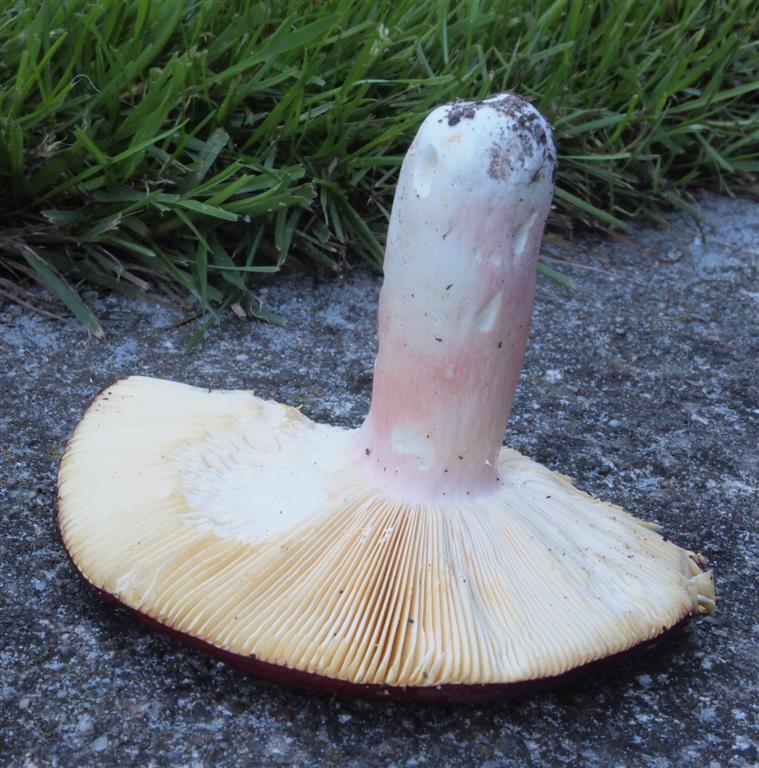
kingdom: Fungi
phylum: Basidiomycota
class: Agaricomycetes
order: Russulales
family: Russulaceae
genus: Russula
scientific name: Russula olivacea
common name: stor skørhat
